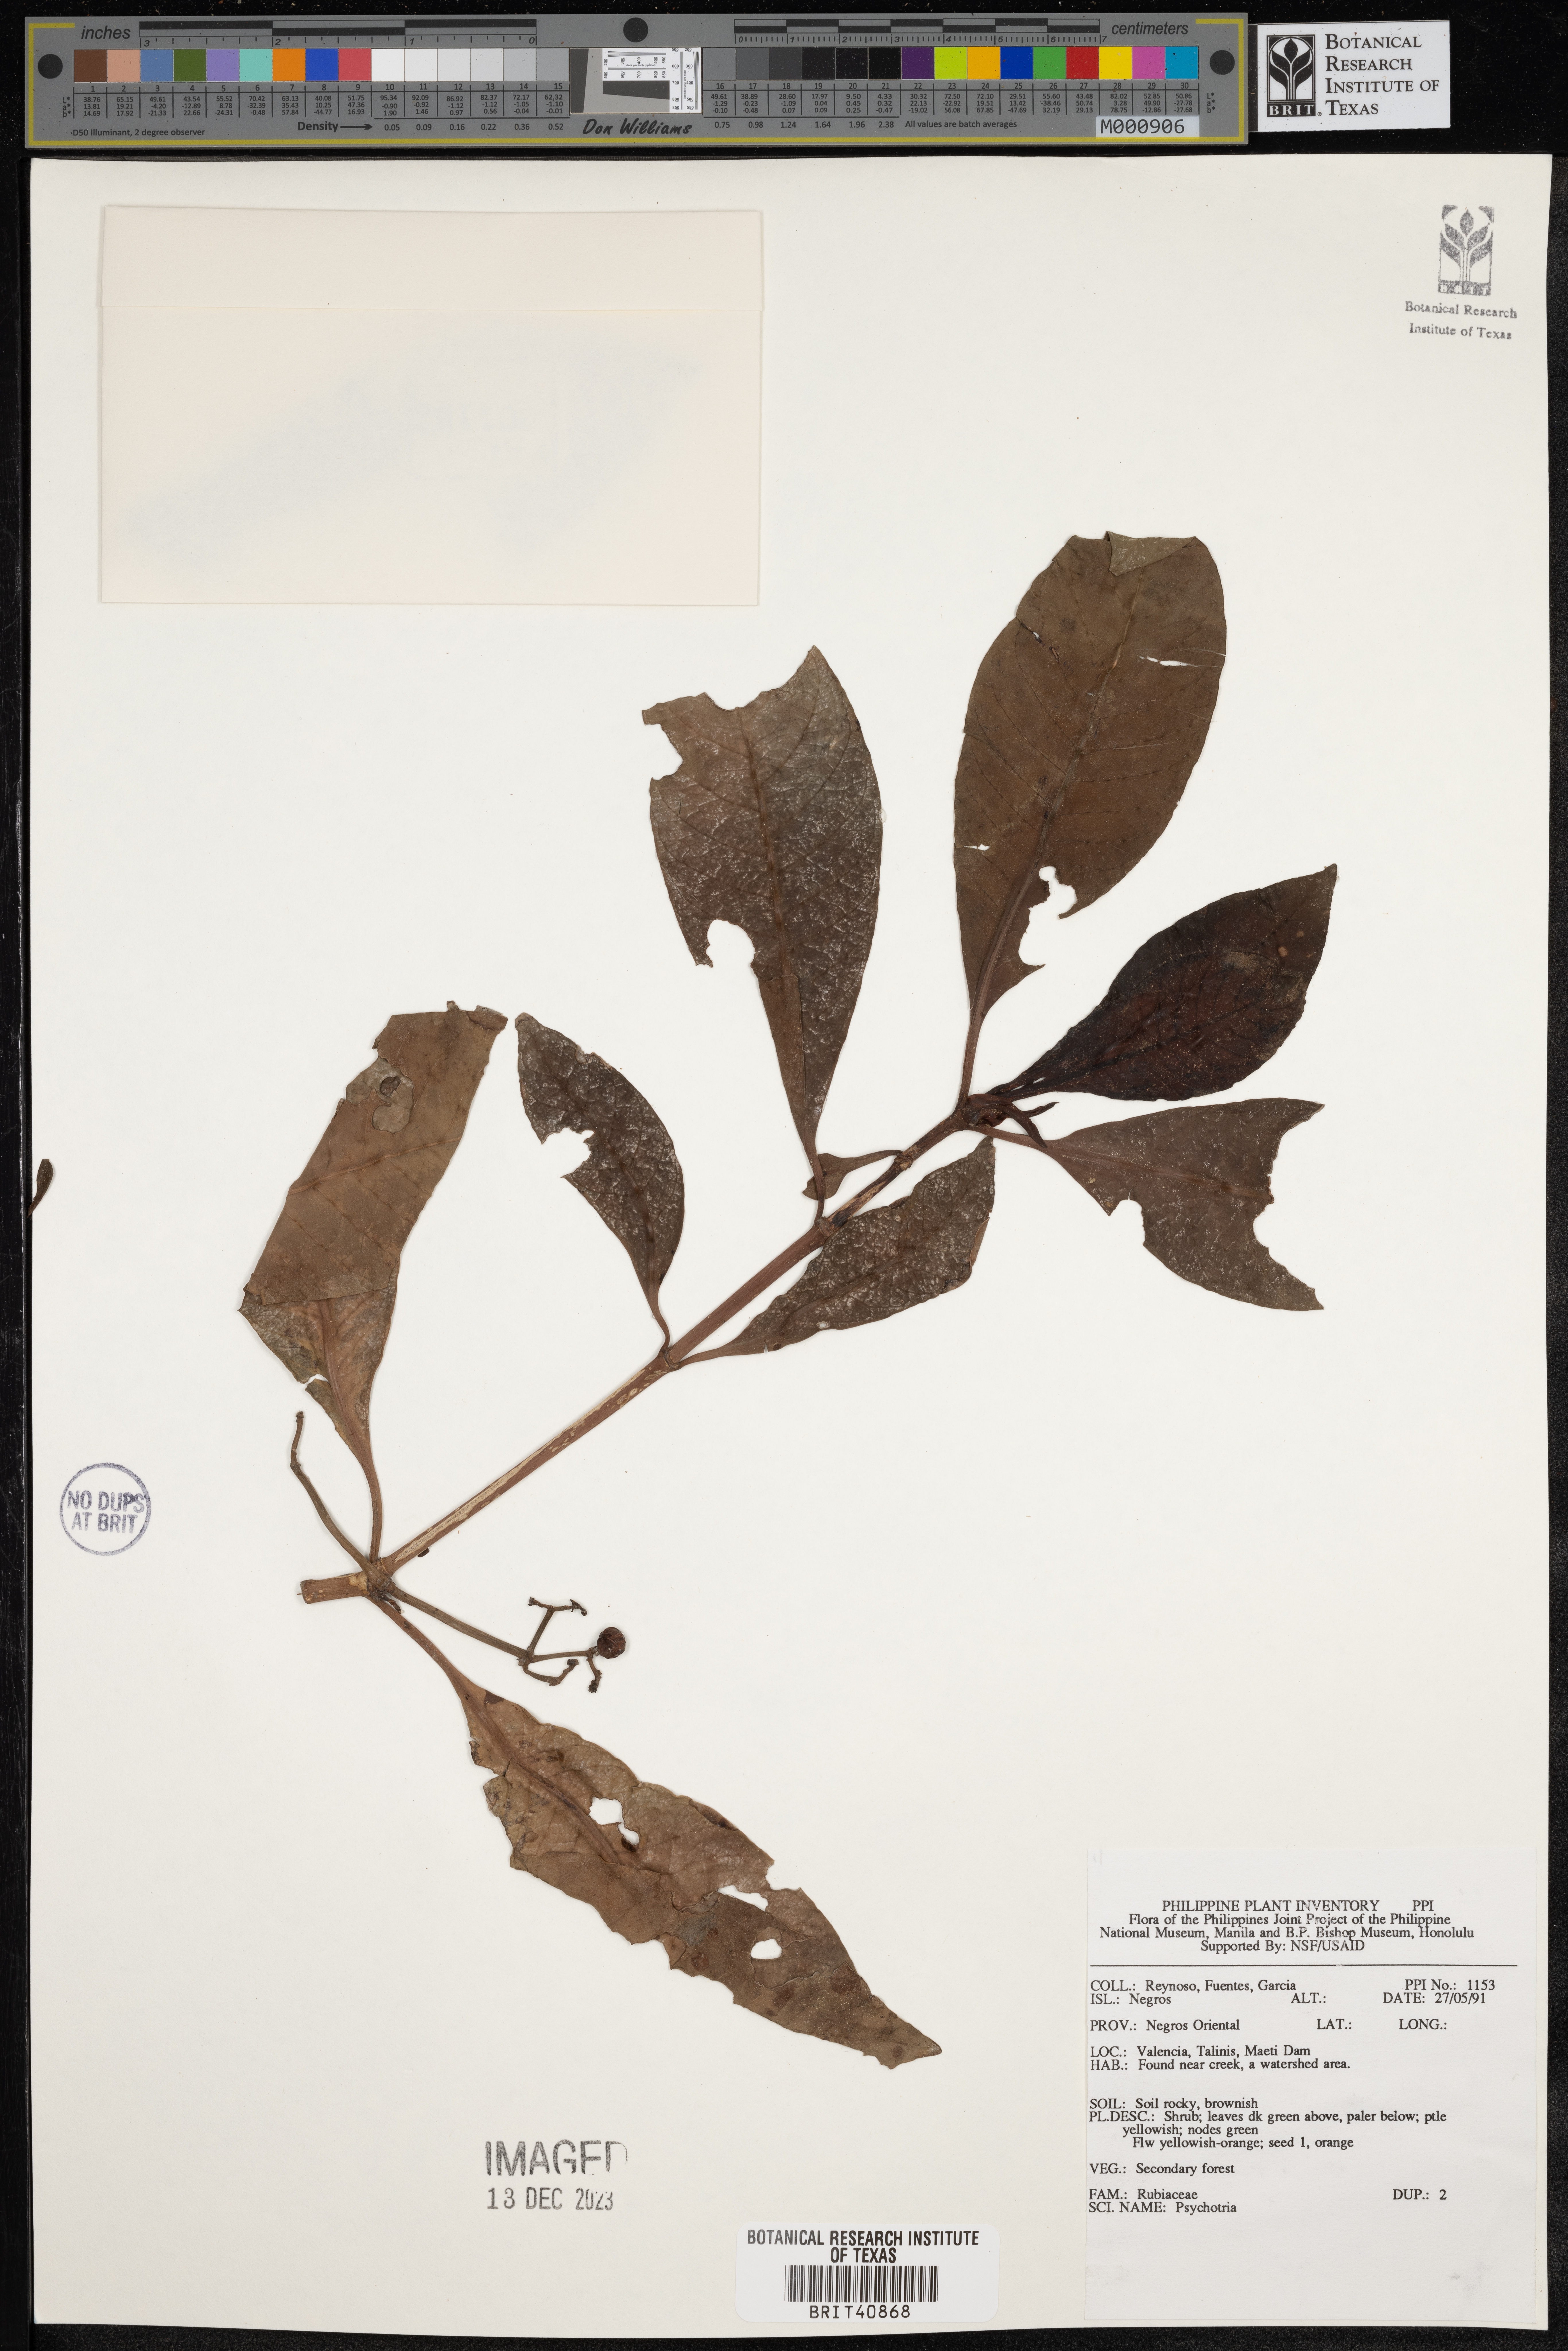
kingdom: Plantae
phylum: Tracheophyta
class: Magnoliopsida
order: Gentianales
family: Rubiaceae
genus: Psychotria
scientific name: Psychotria
